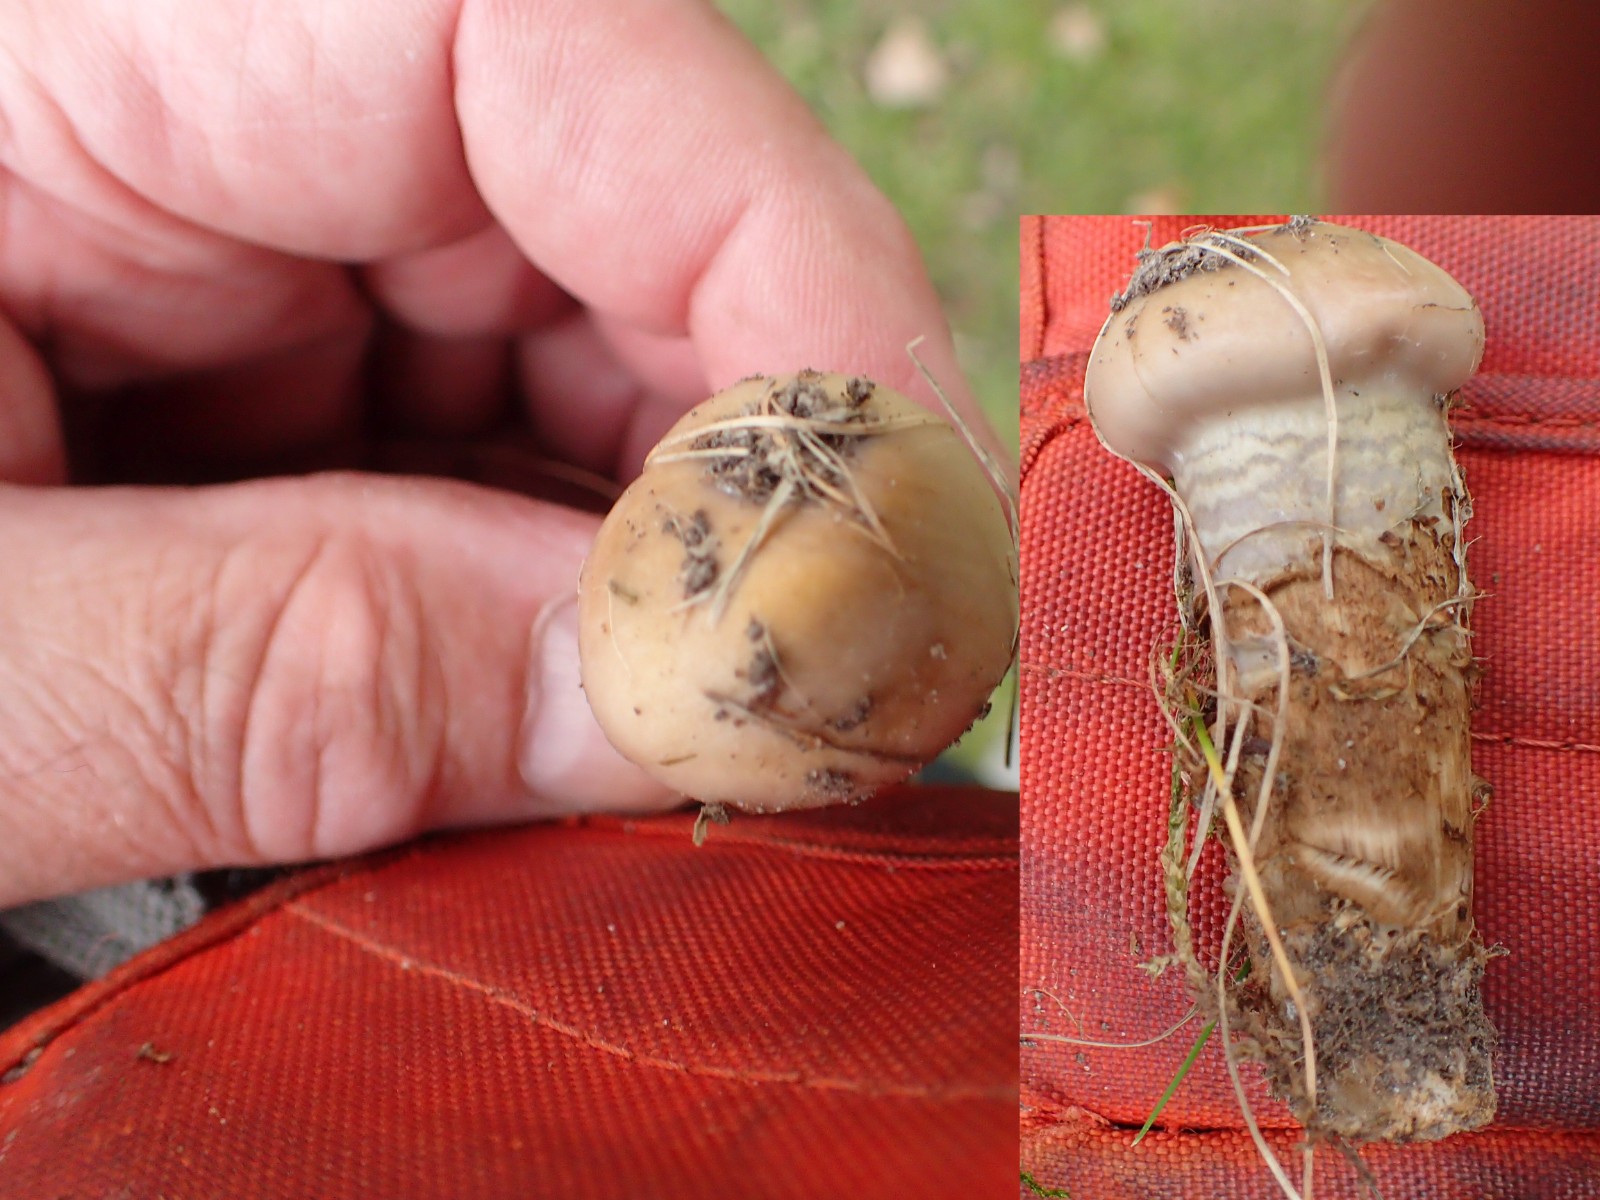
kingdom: Fungi
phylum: Basidiomycota
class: Agaricomycetes
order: Agaricales
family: Cortinariaceae
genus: Cortinarius
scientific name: Cortinarius trivialis
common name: brunslimet slørhat
